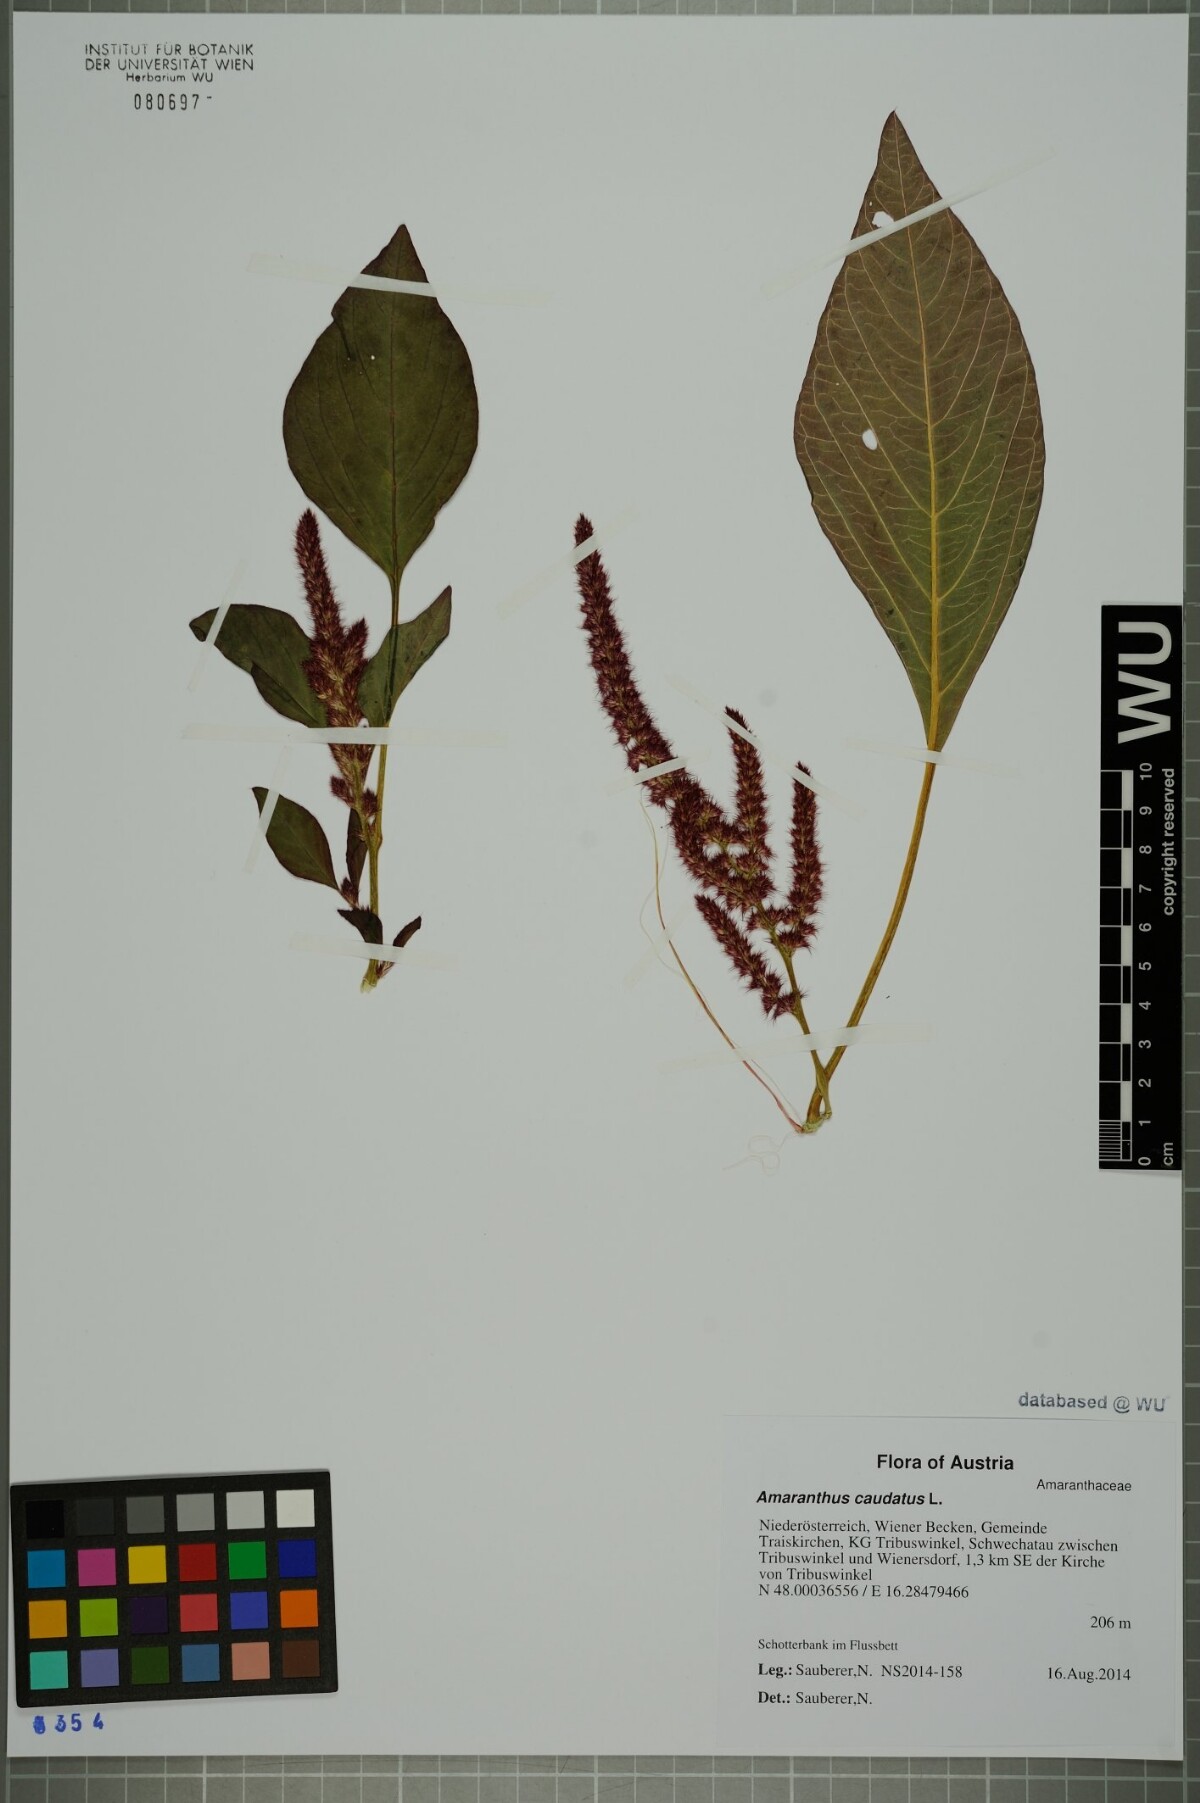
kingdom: Plantae
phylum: Tracheophyta
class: Magnoliopsida
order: Caryophyllales
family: Amaranthaceae
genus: Amaranthus
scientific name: Amaranthus caudatus
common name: Love-lies-bleeding
